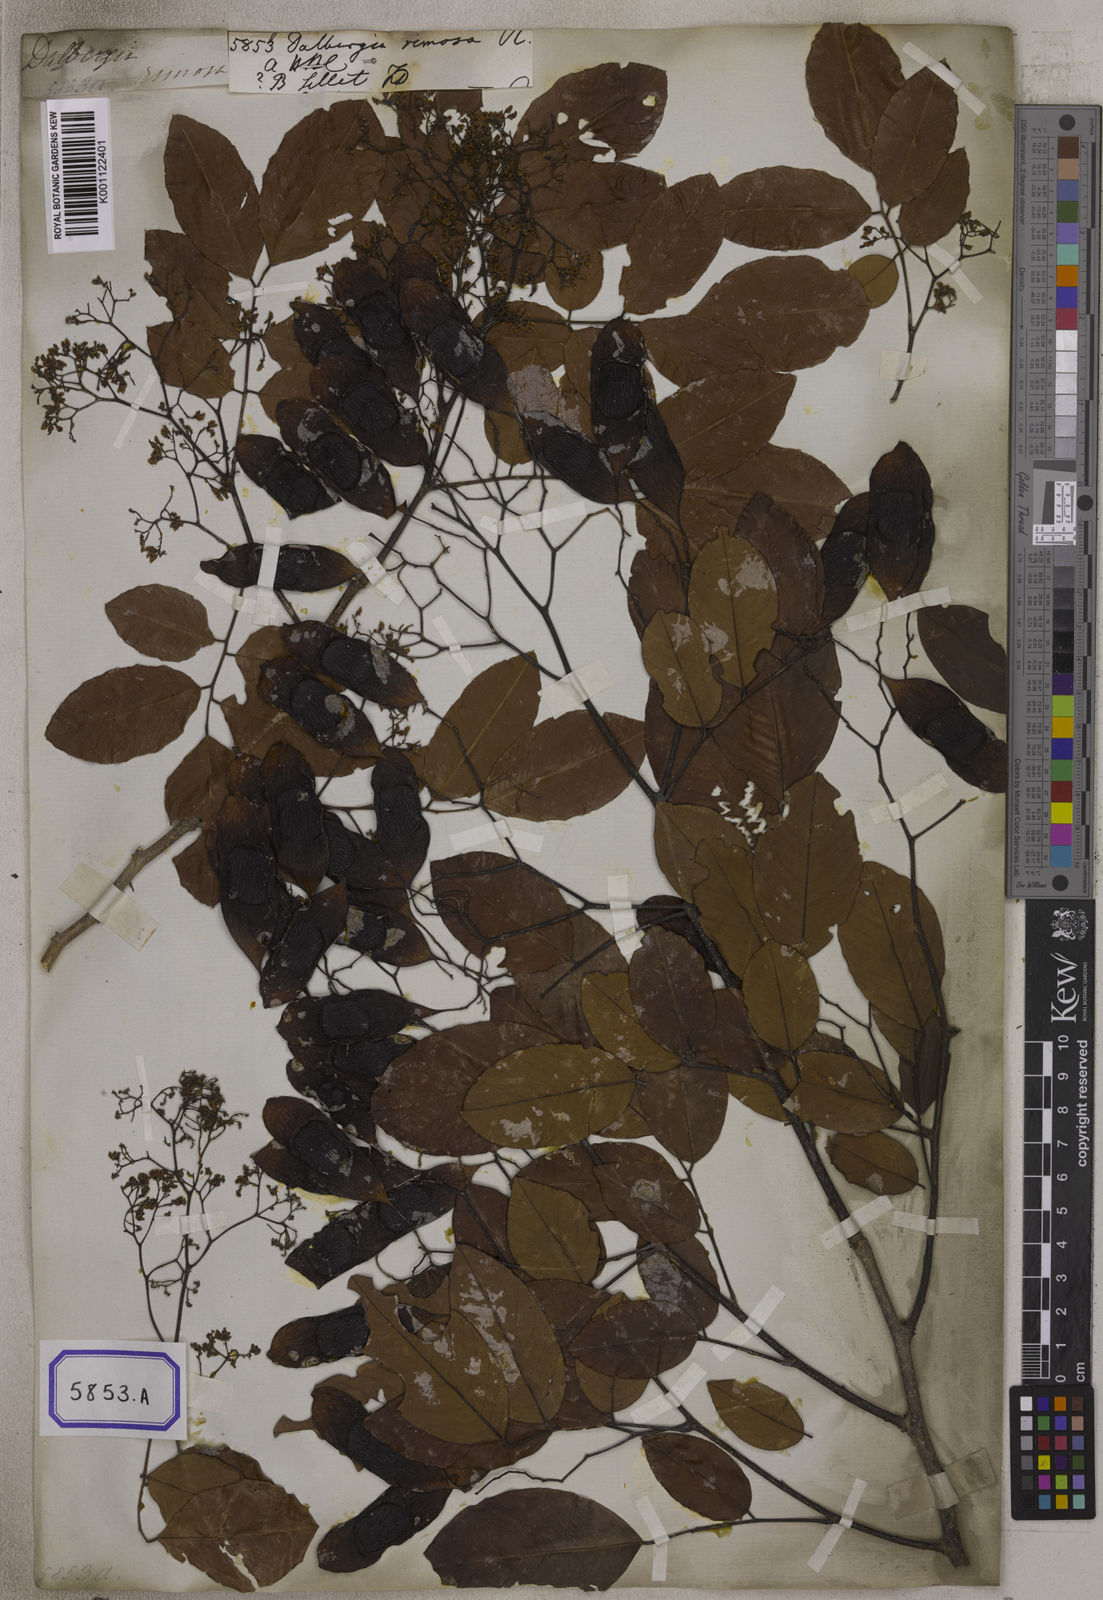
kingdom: Plantae
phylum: Tracheophyta
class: Magnoliopsida
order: Fabales
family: Fabaceae
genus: Dalbergia
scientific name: Dalbergia rimosa
